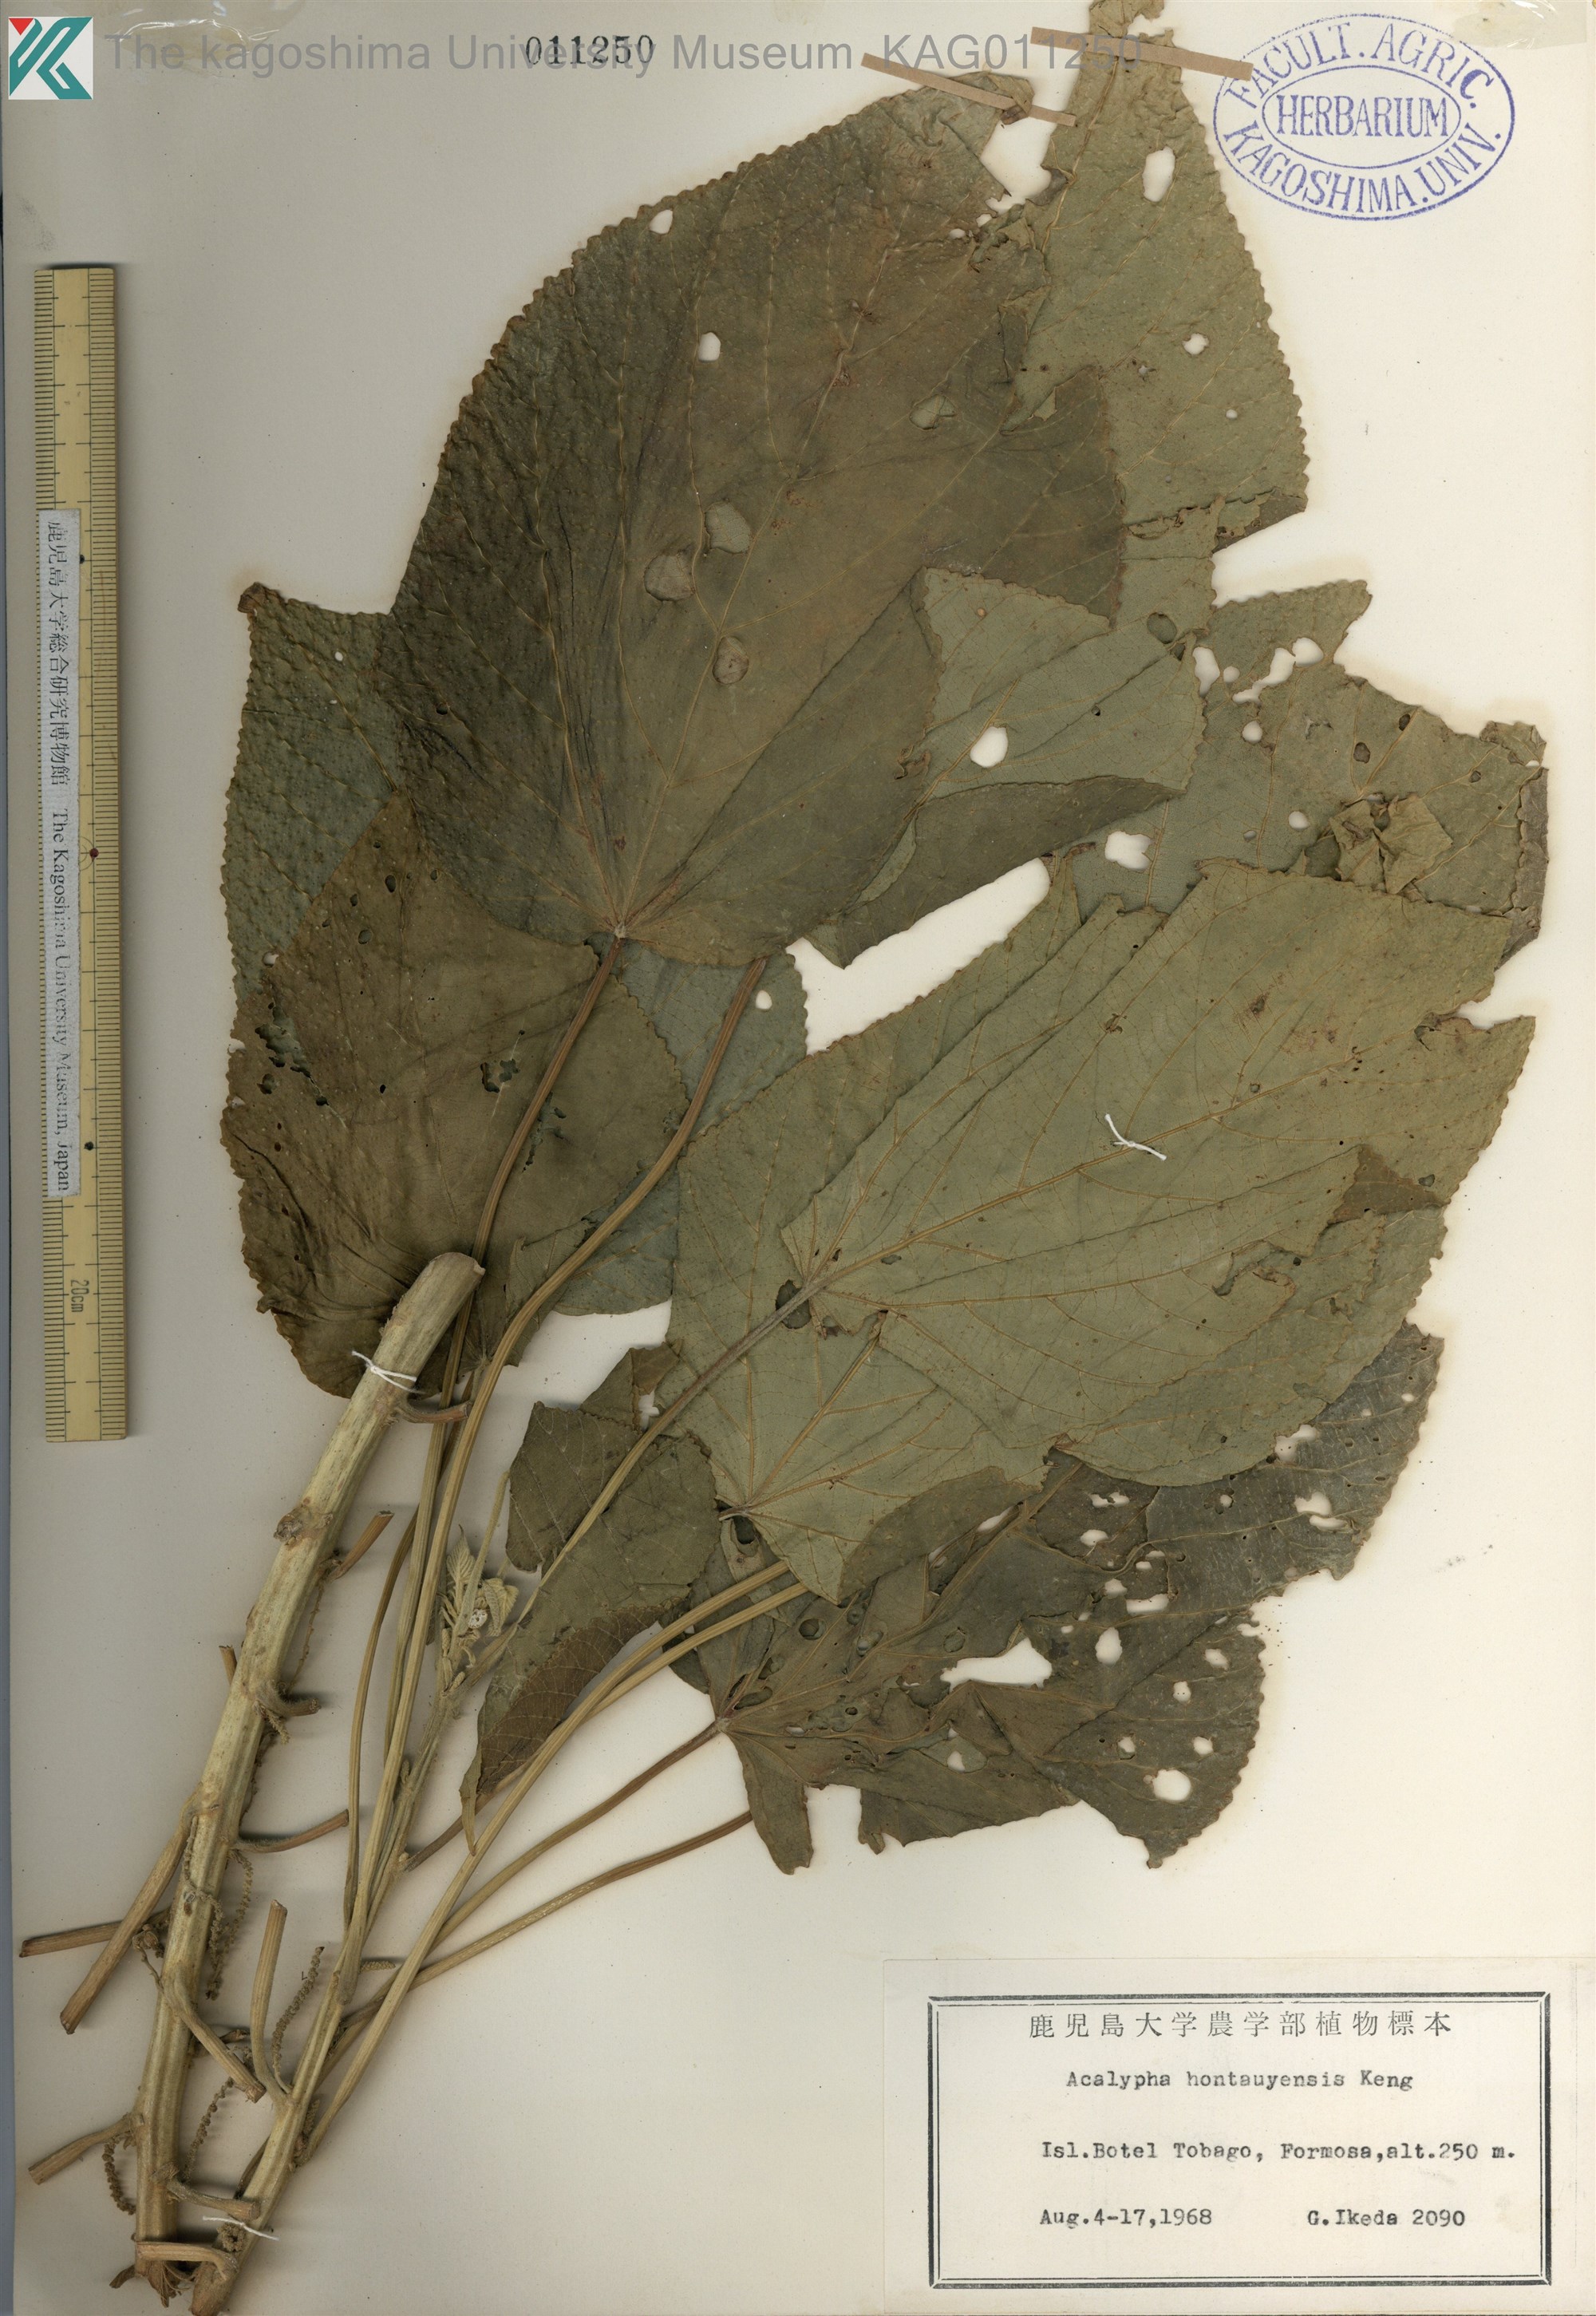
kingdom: Plantae
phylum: Tracheophyta
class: Magnoliopsida
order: Malpighiales
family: Euphorbiaceae
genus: Acalypha
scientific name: Acalypha
